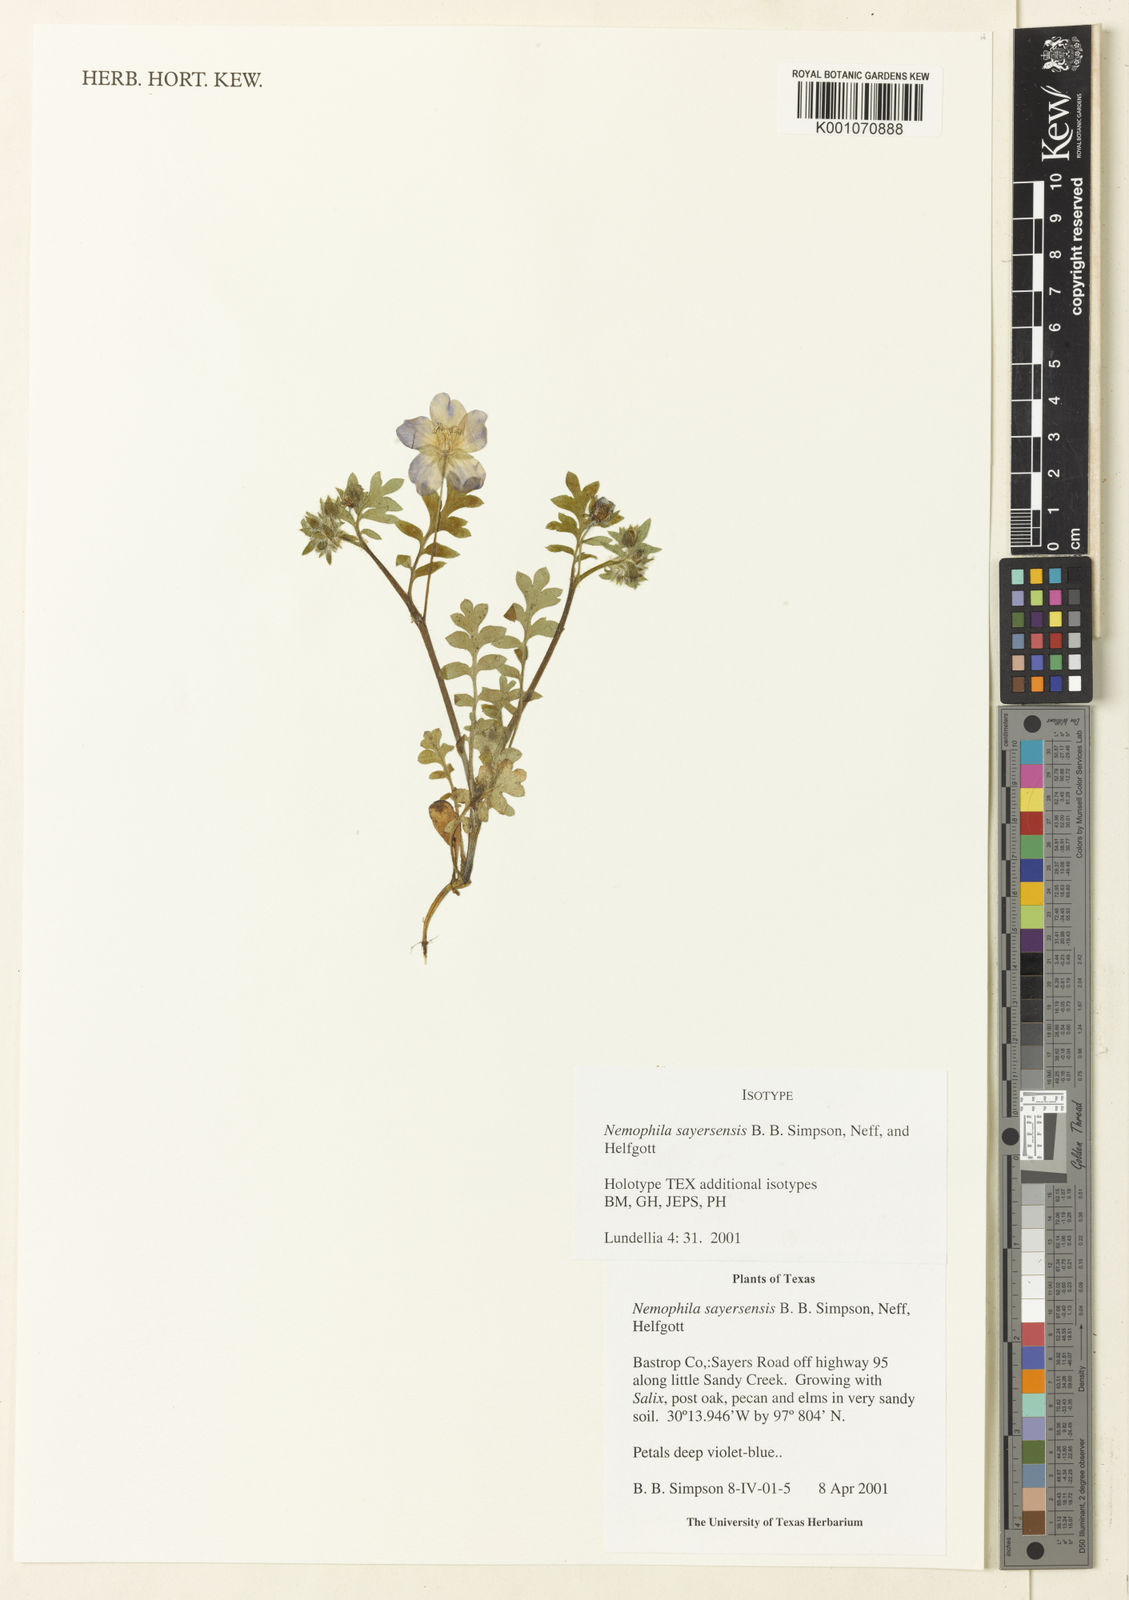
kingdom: Plantae
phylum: Tracheophyta
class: Magnoliopsida
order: Boraginales
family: Hydrophyllaceae
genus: Nemophila
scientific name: Nemophila sayersensis
